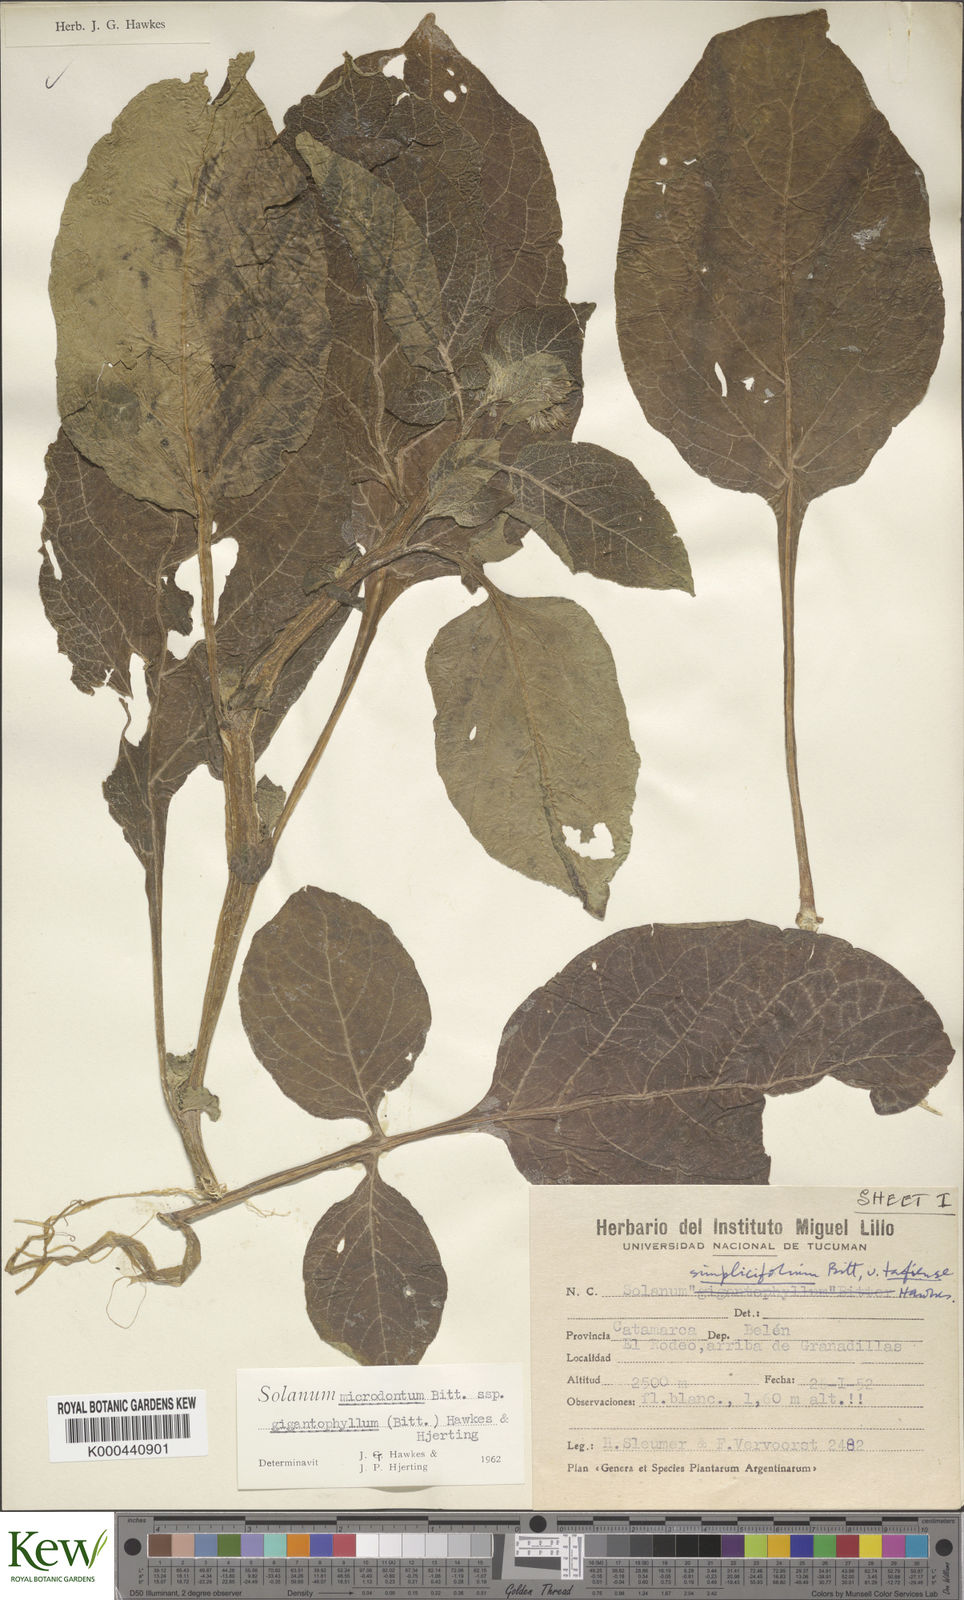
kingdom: Plantae
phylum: Tracheophyta
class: Magnoliopsida
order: Solanales
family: Solanaceae
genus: Solanum
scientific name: Solanum microdontum
